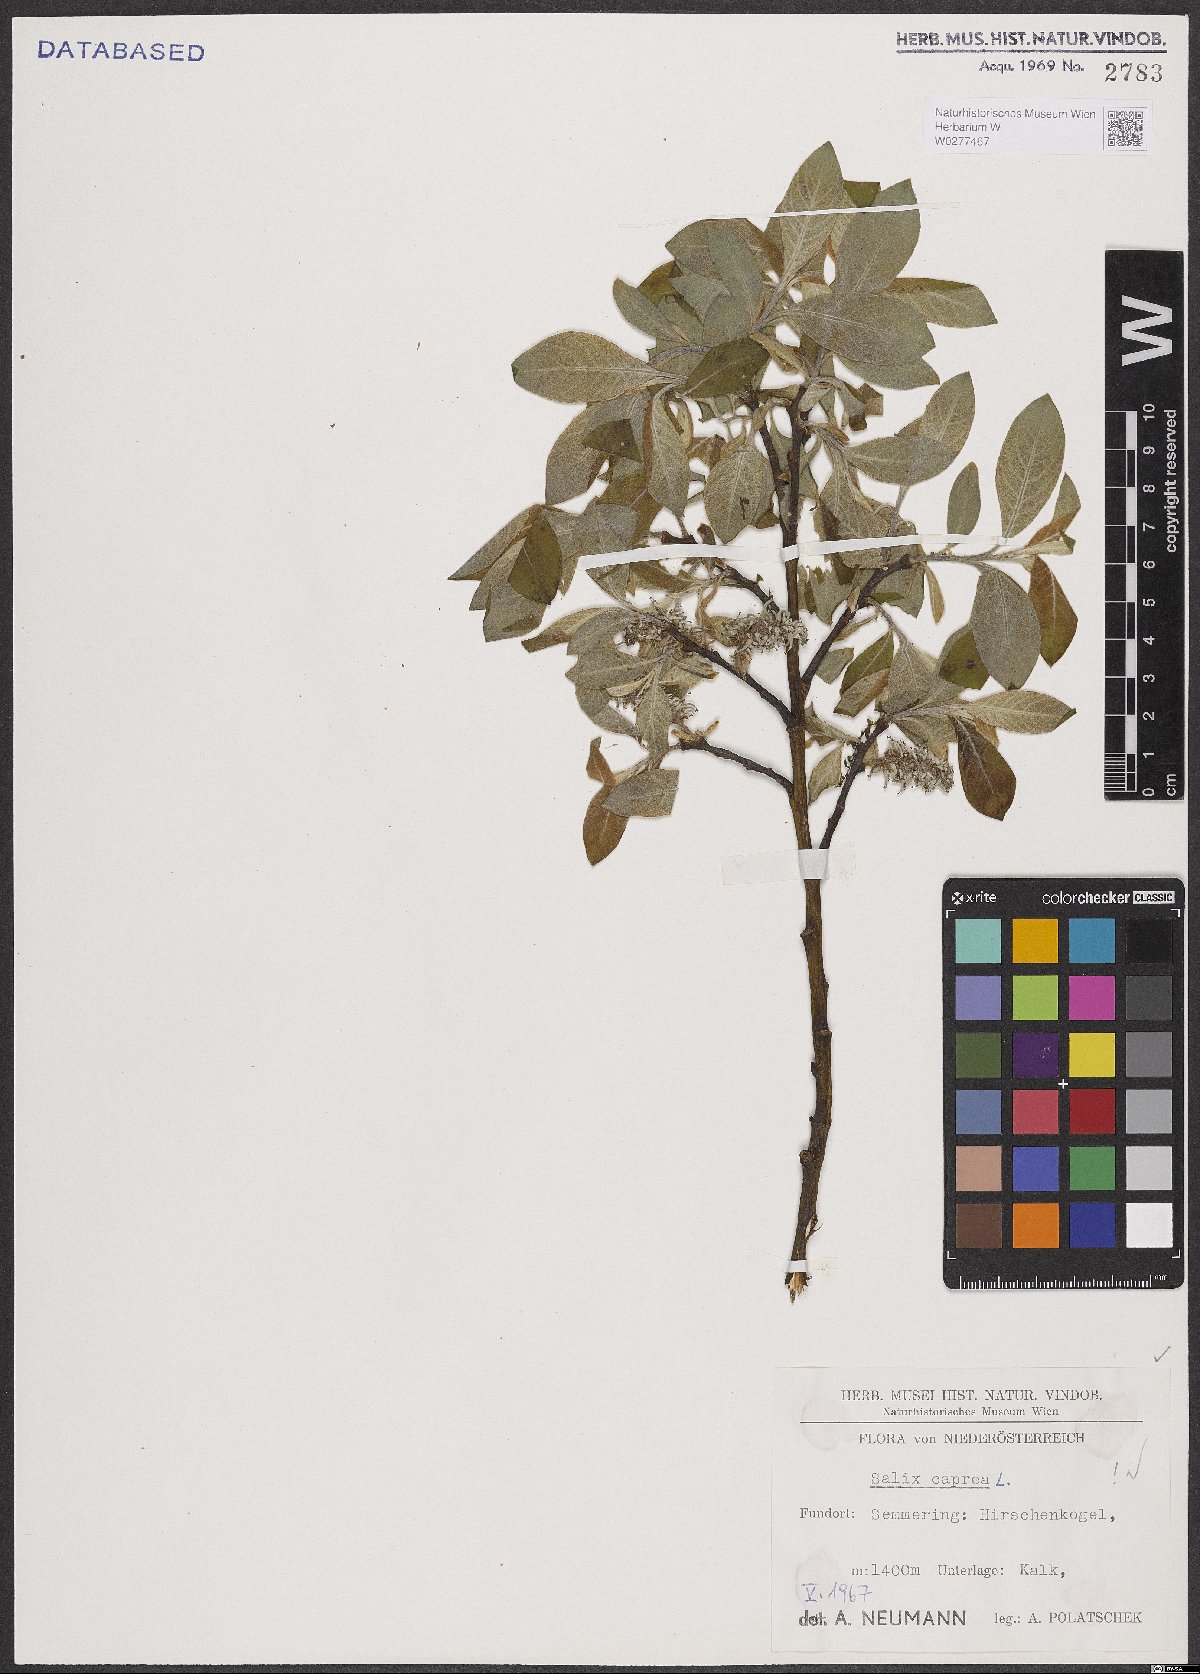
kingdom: Plantae
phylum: Tracheophyta
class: Magnoliopsida
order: Malpighiales
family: Salicaceae
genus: Salix
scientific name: Salix caprea
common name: Goat willow
